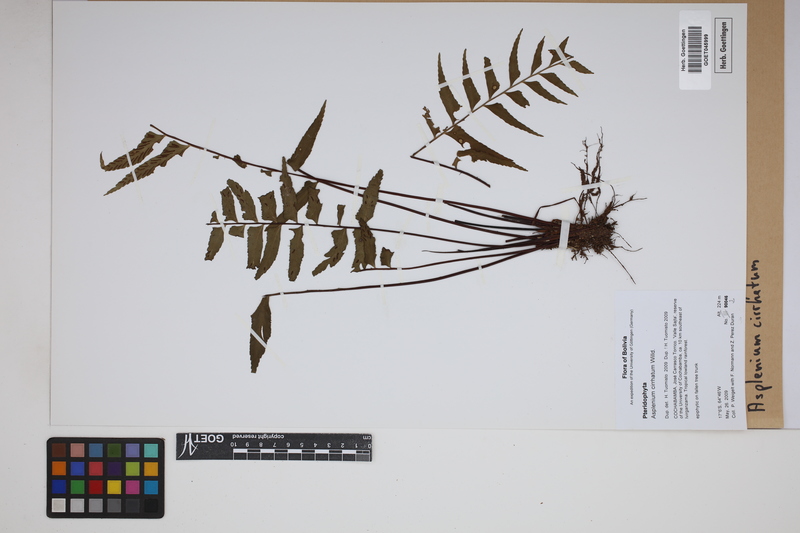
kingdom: Plantae
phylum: Tracheophyta
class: Polypodiopsida
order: Polypodiales
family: Aspleniaceae
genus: Asplenium
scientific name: Asplenium cirrhatum
